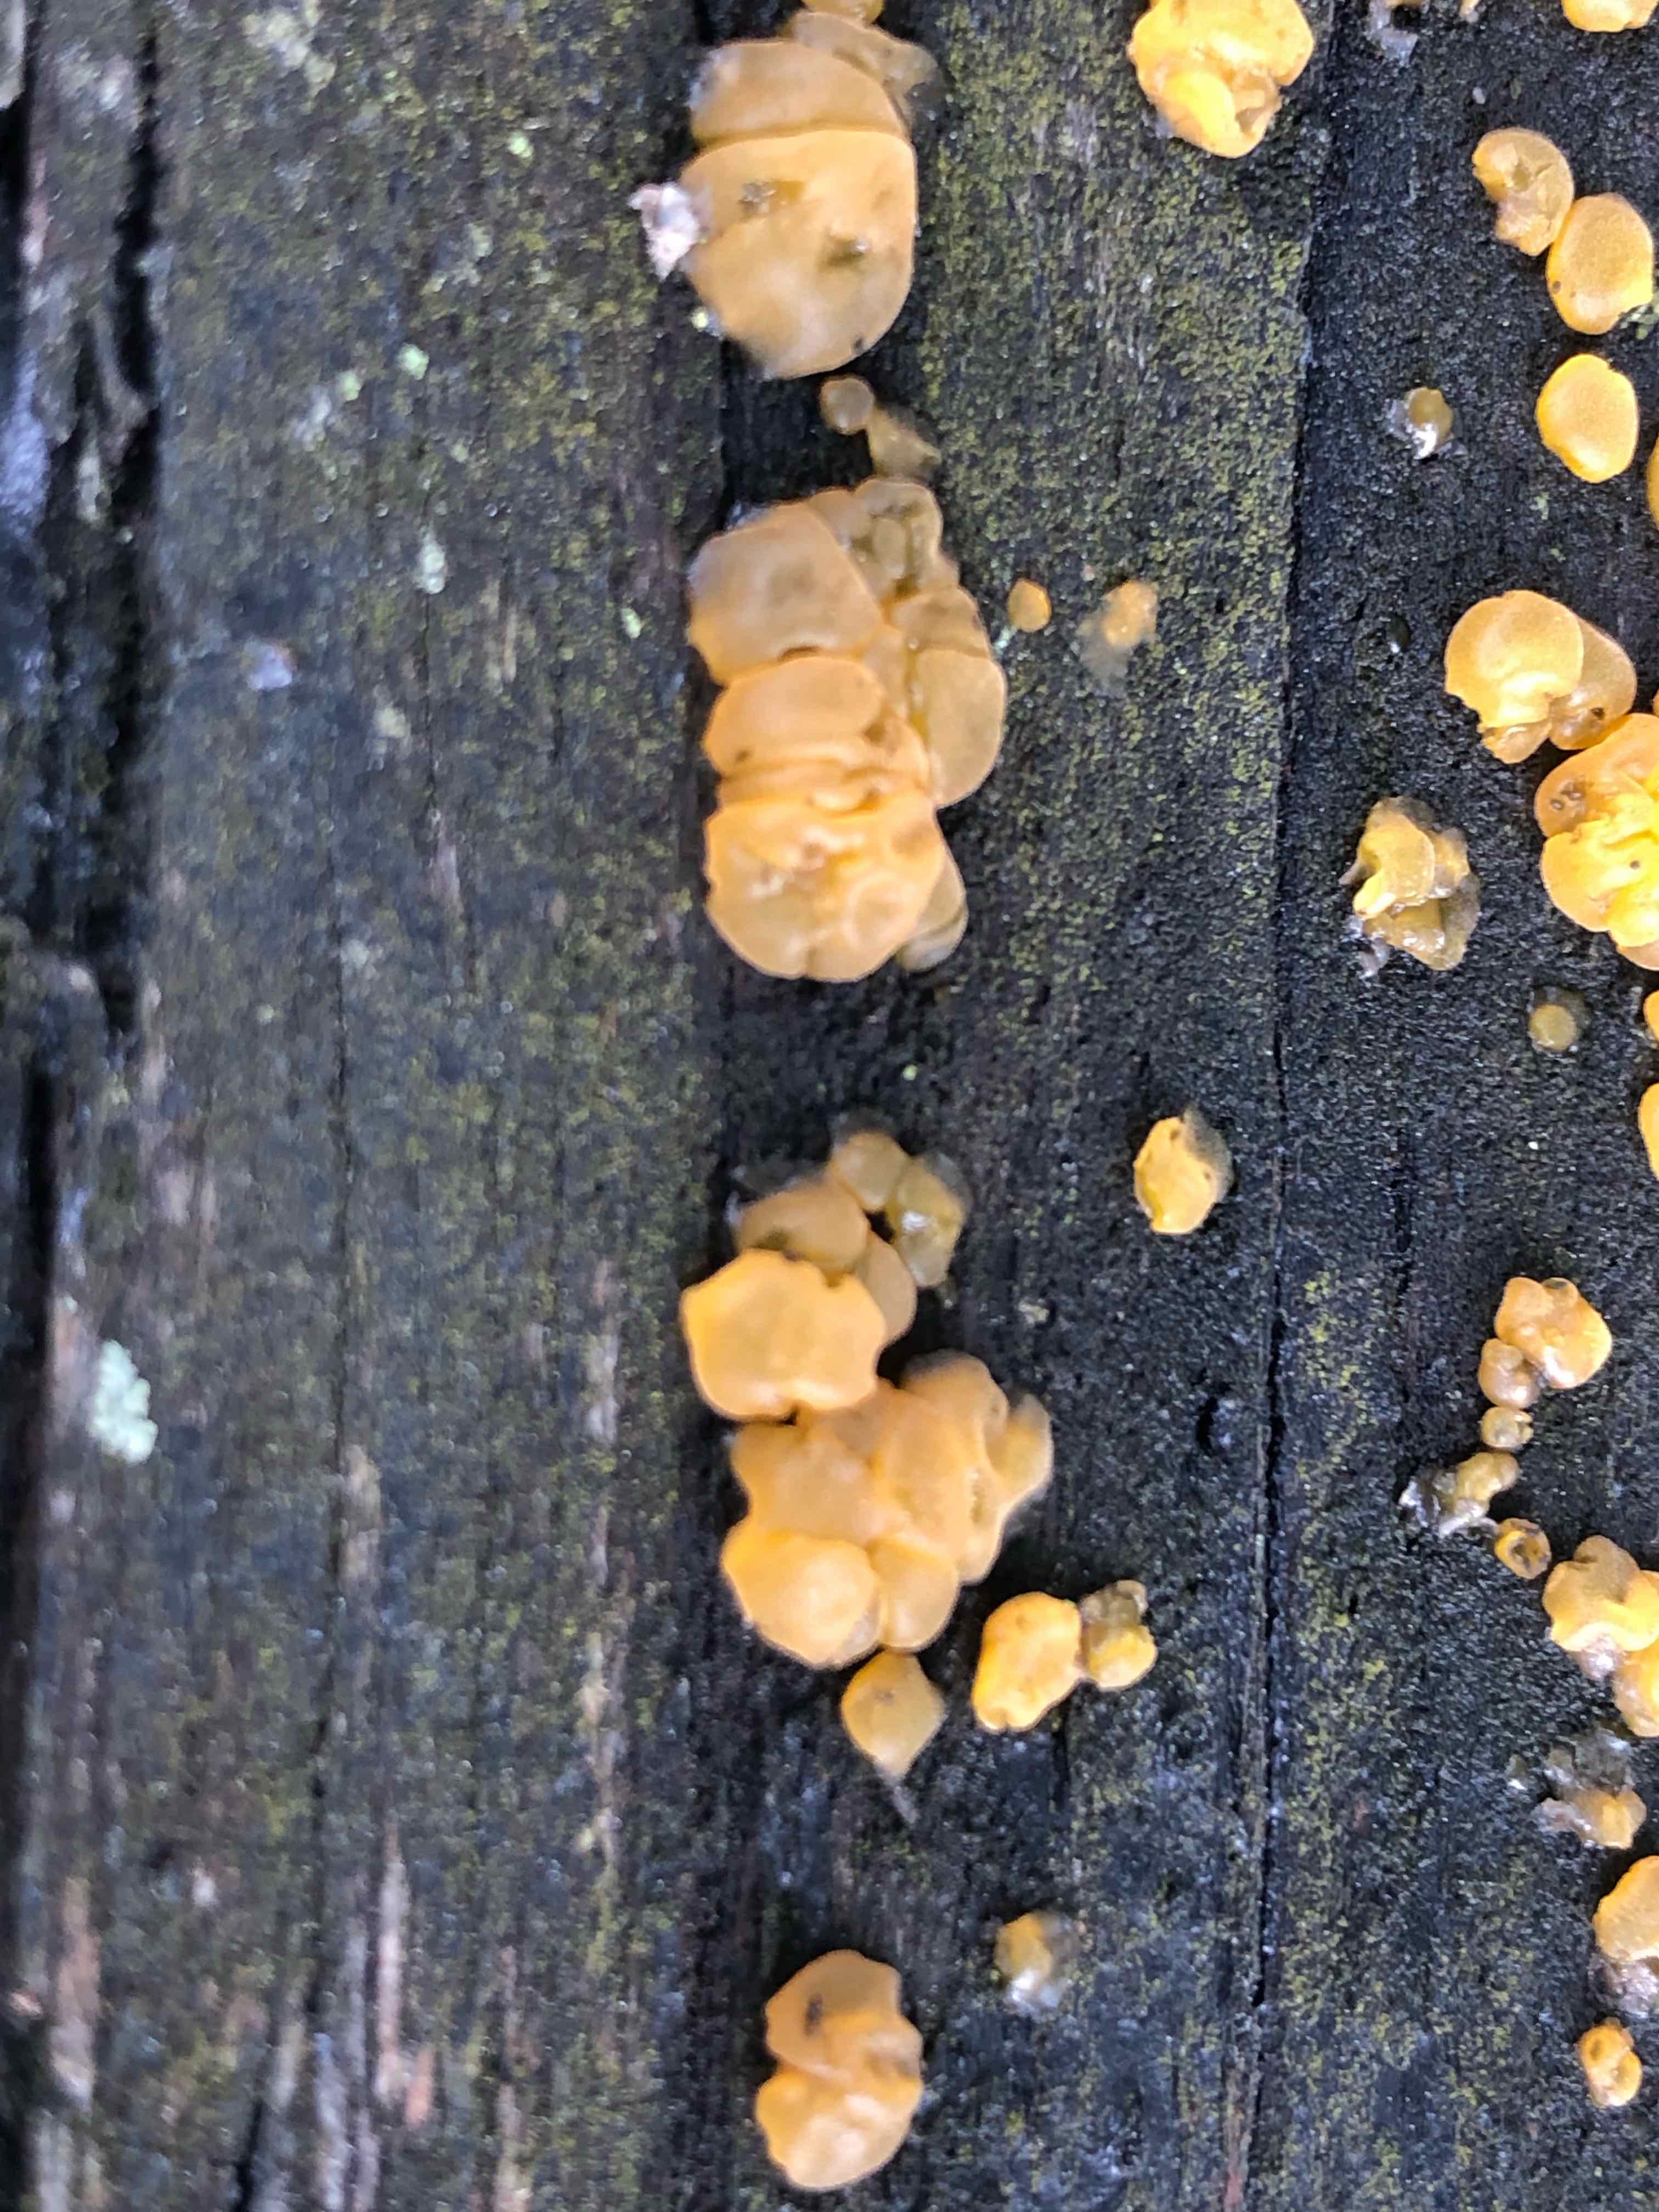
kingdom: Fungi
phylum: Basidiomycota
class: Dacrymycetes
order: Dacrymycetales
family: Dacrymycetaceae
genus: Dacrymyces
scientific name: Dacrymyces
